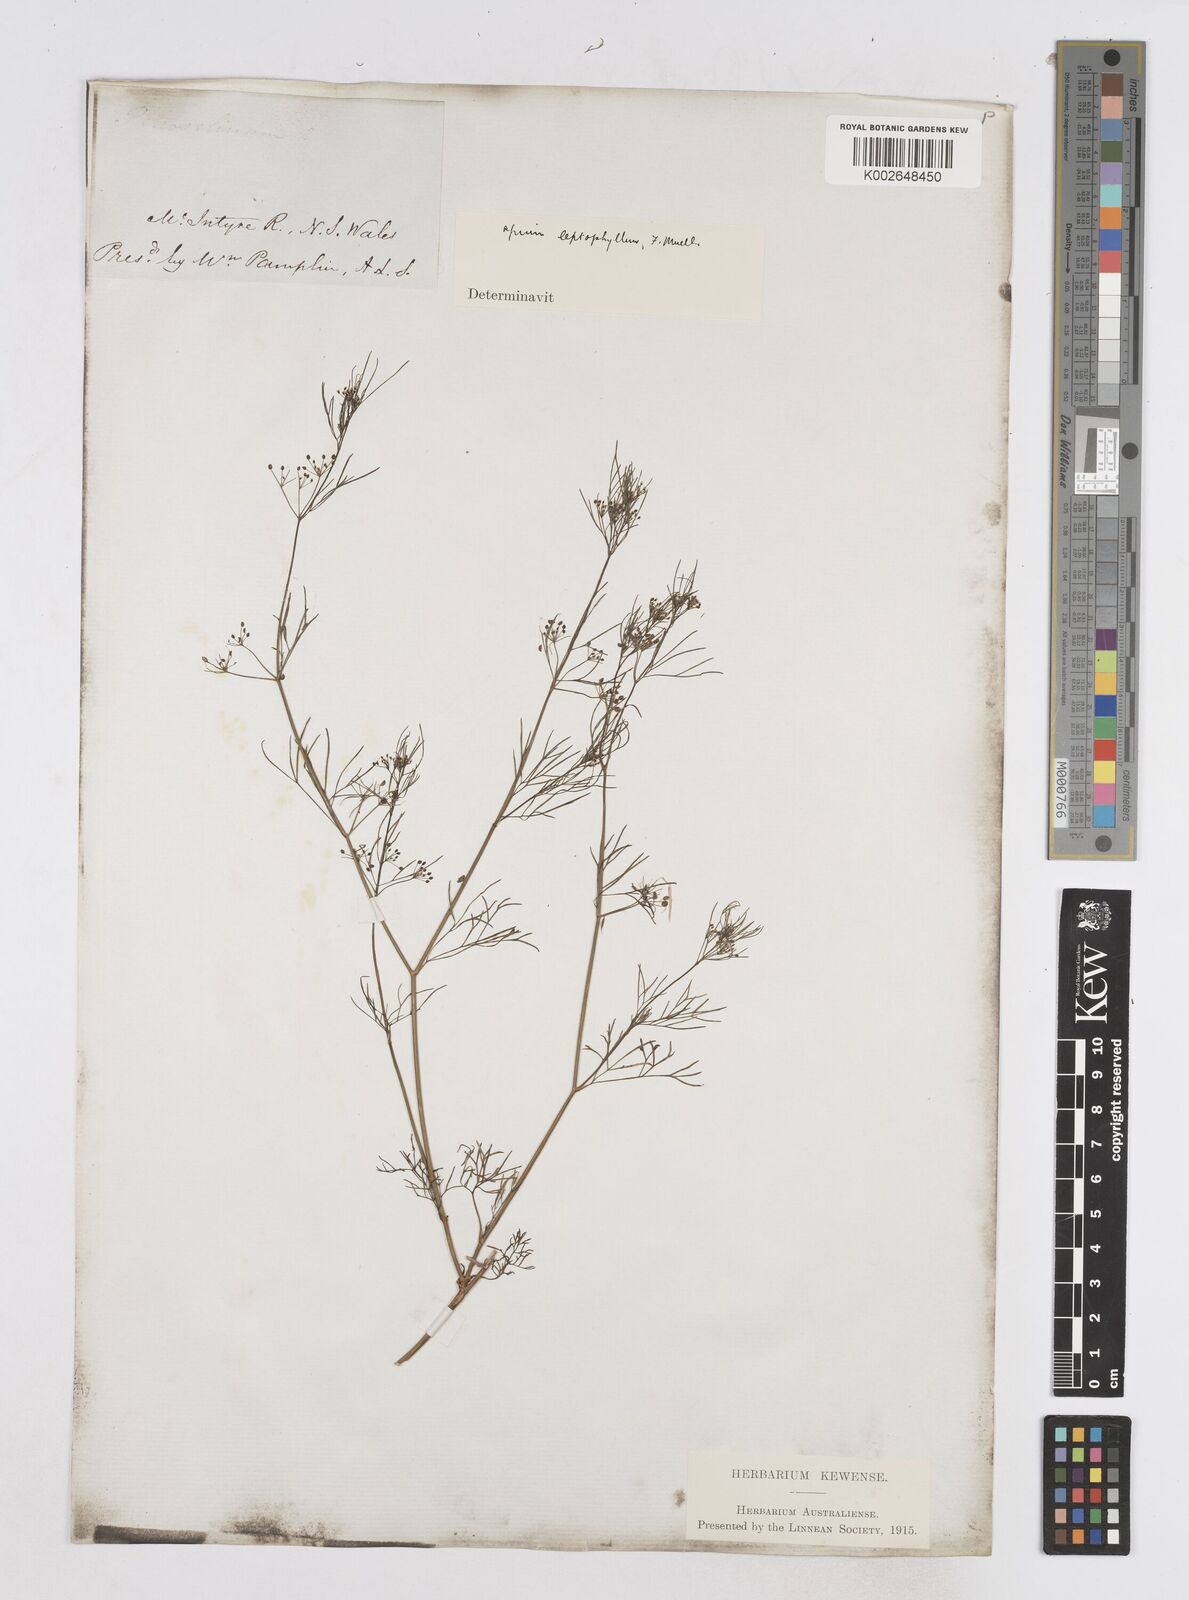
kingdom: Plantae
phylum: Tracheophyta
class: Magnoliopsida
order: Apiales
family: Apiaceae
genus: Cyclospermum
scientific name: Cyclospermum leptophyllum
